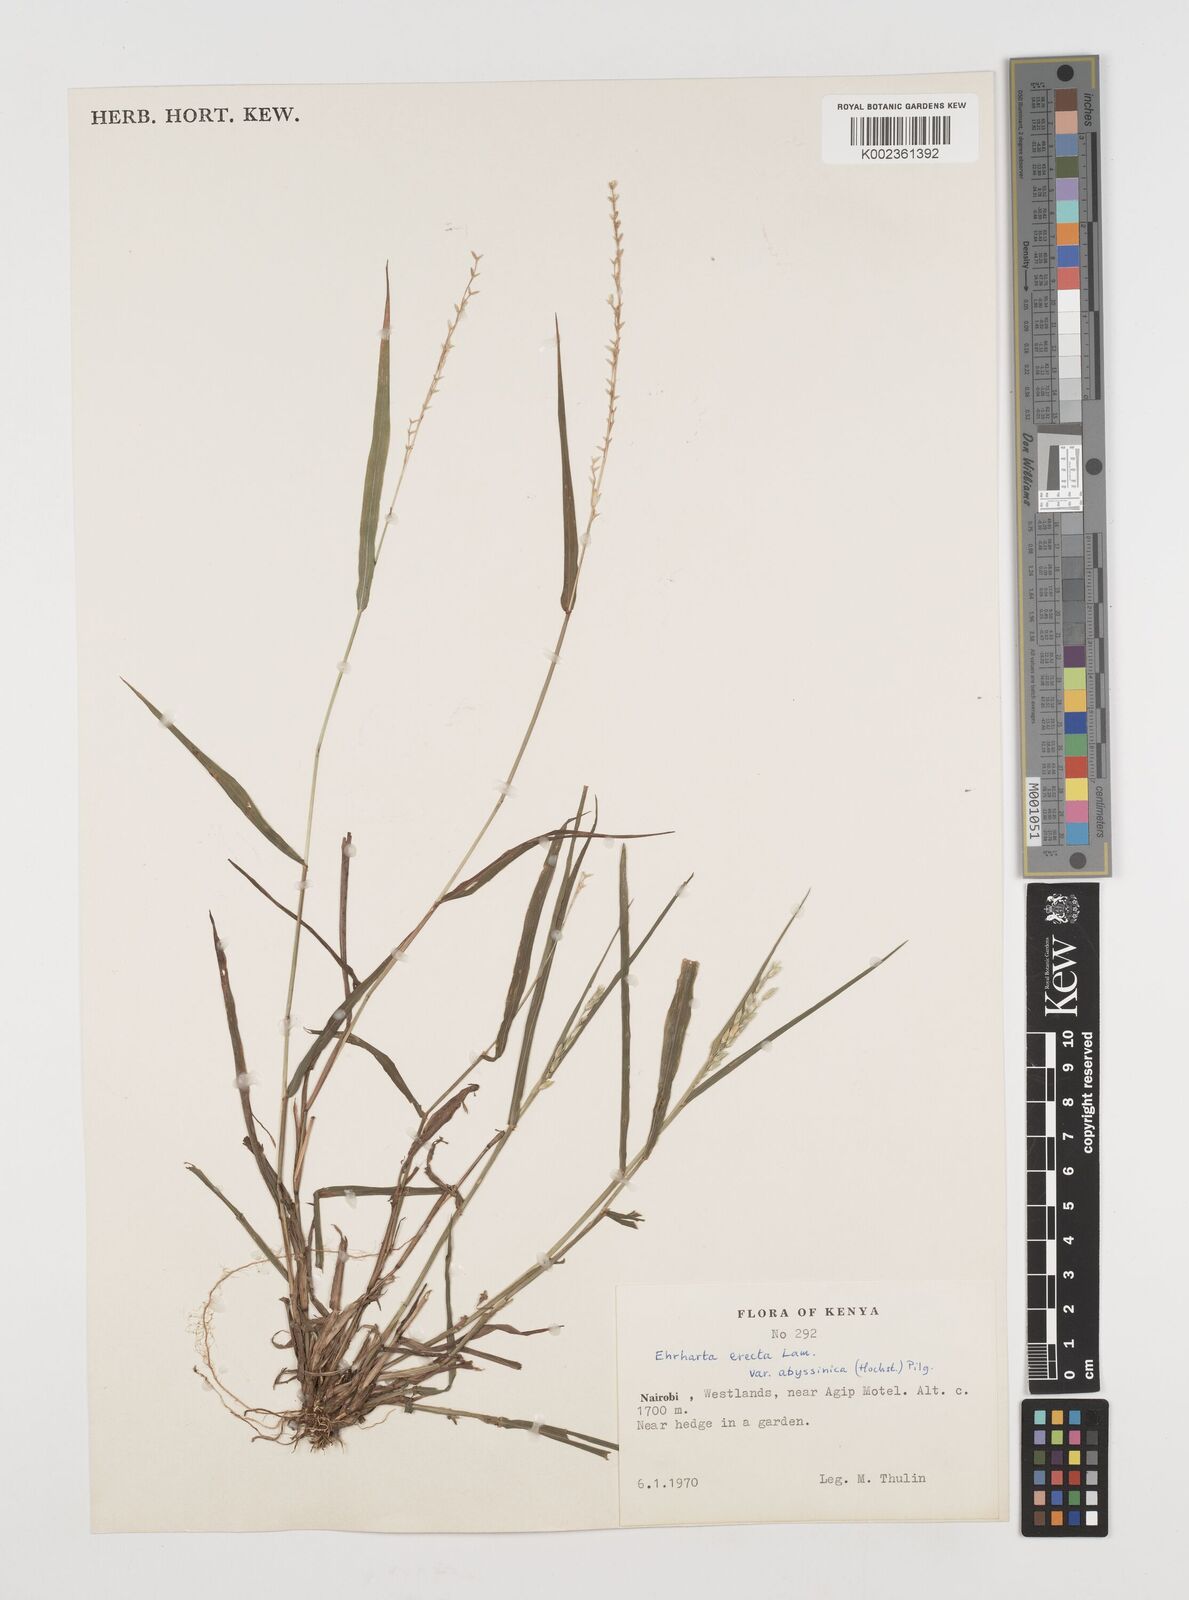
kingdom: Plantae
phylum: Tracheophyta
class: Liliopsida
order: Poales
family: Poaceae
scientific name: Poaceae
